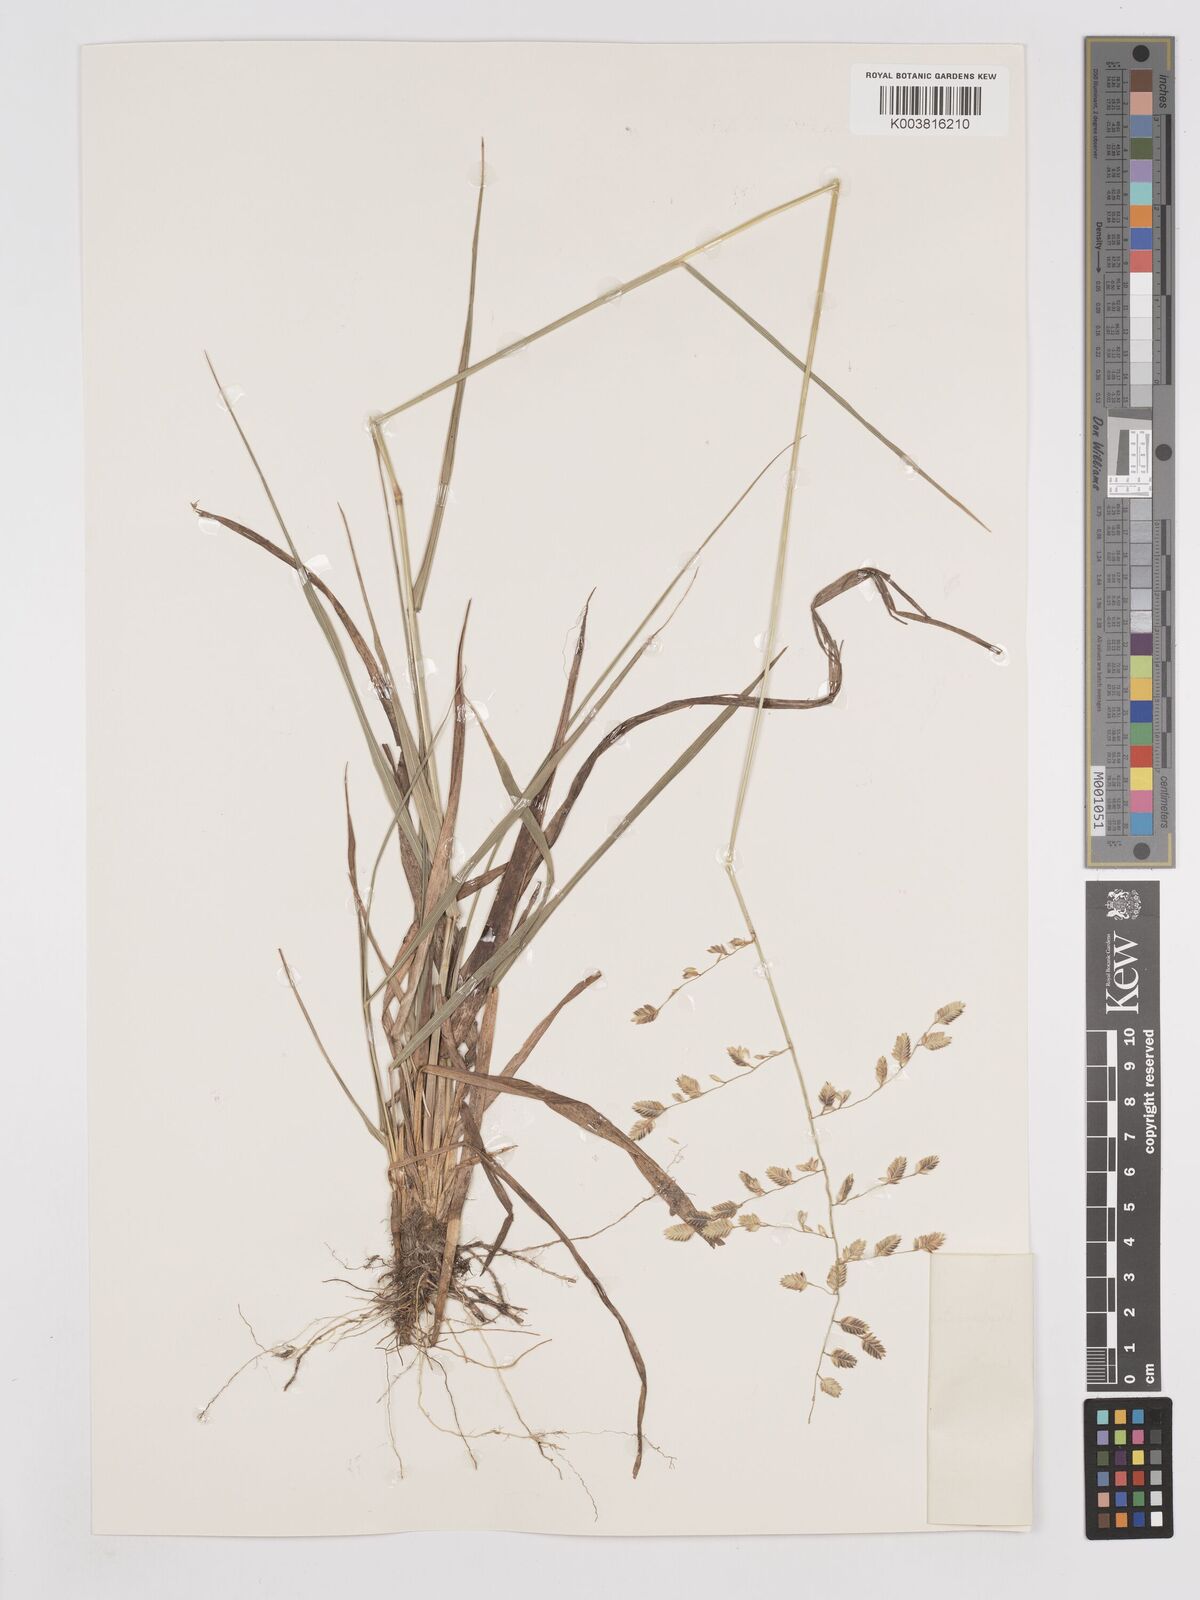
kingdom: Plantae
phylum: Tracheophyta
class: Liliopsida
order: Poales
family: Poaceae
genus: Eragrostis
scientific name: Eragrostis blepharostachya
